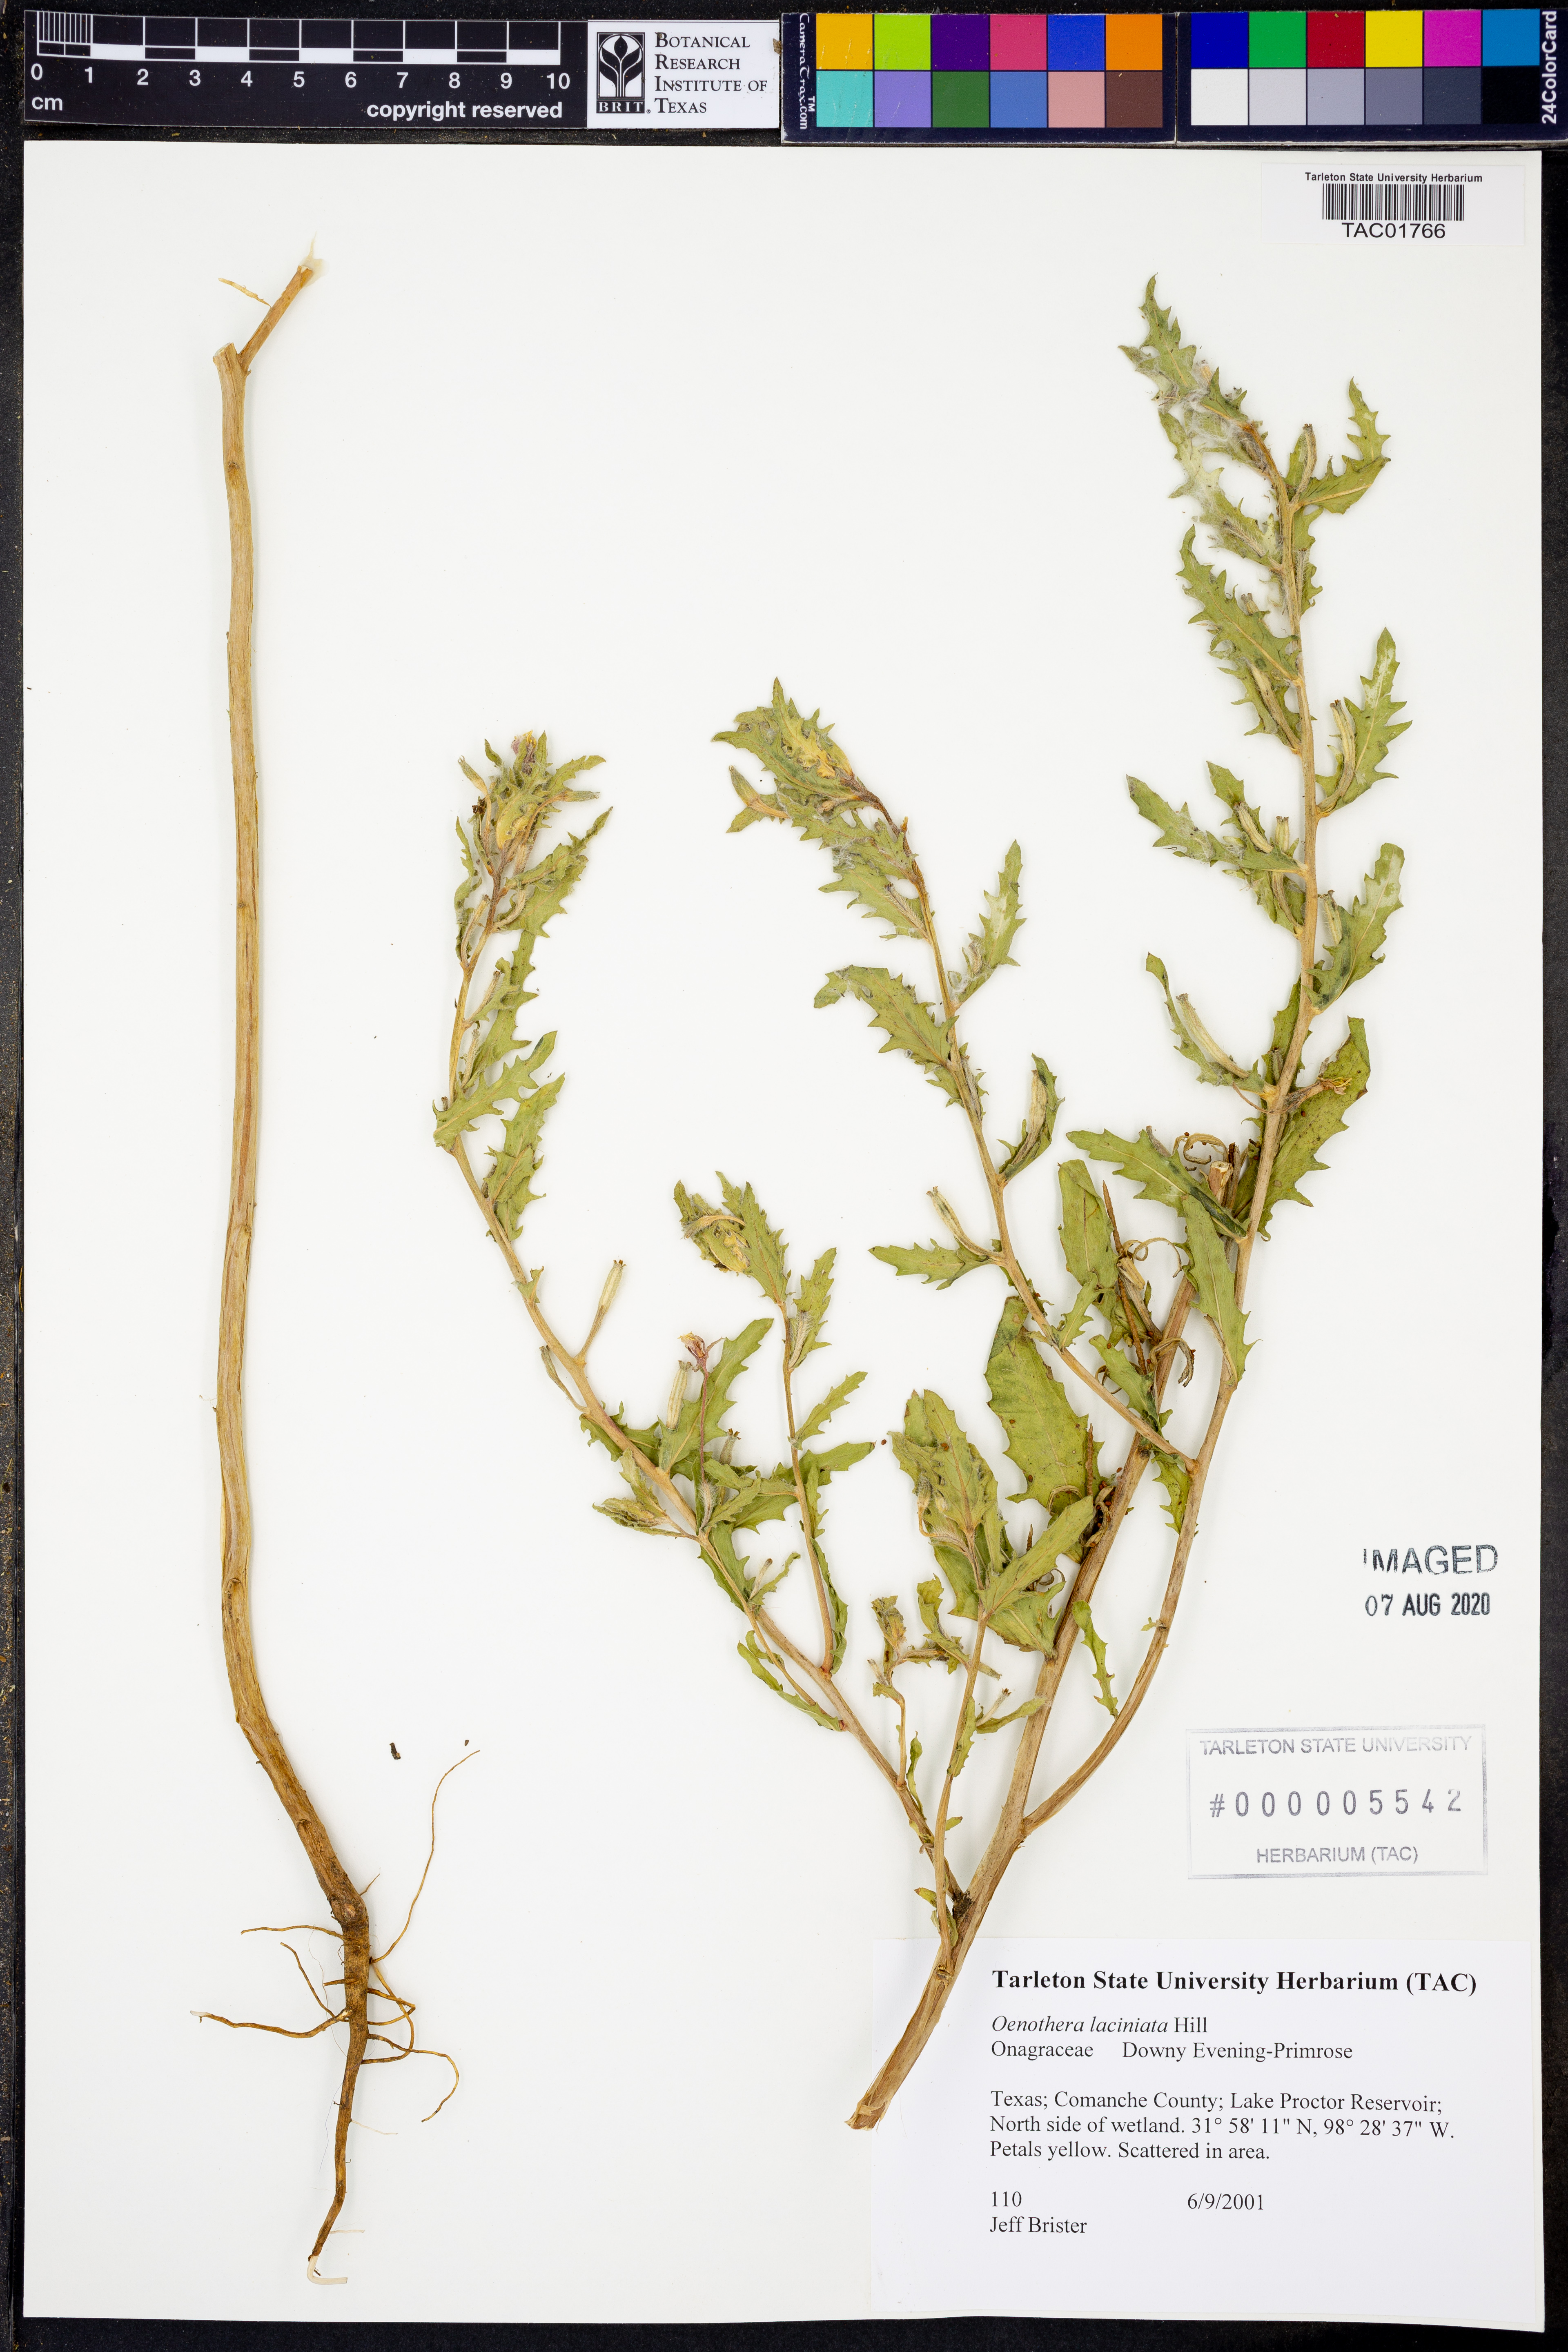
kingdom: Plantae
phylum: Tracheophyta
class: Magnoliopsida
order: Myrtales
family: Onagraceae
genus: Oenothera
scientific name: Oenothera laciniata
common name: Cut-leaved evening-primrose
